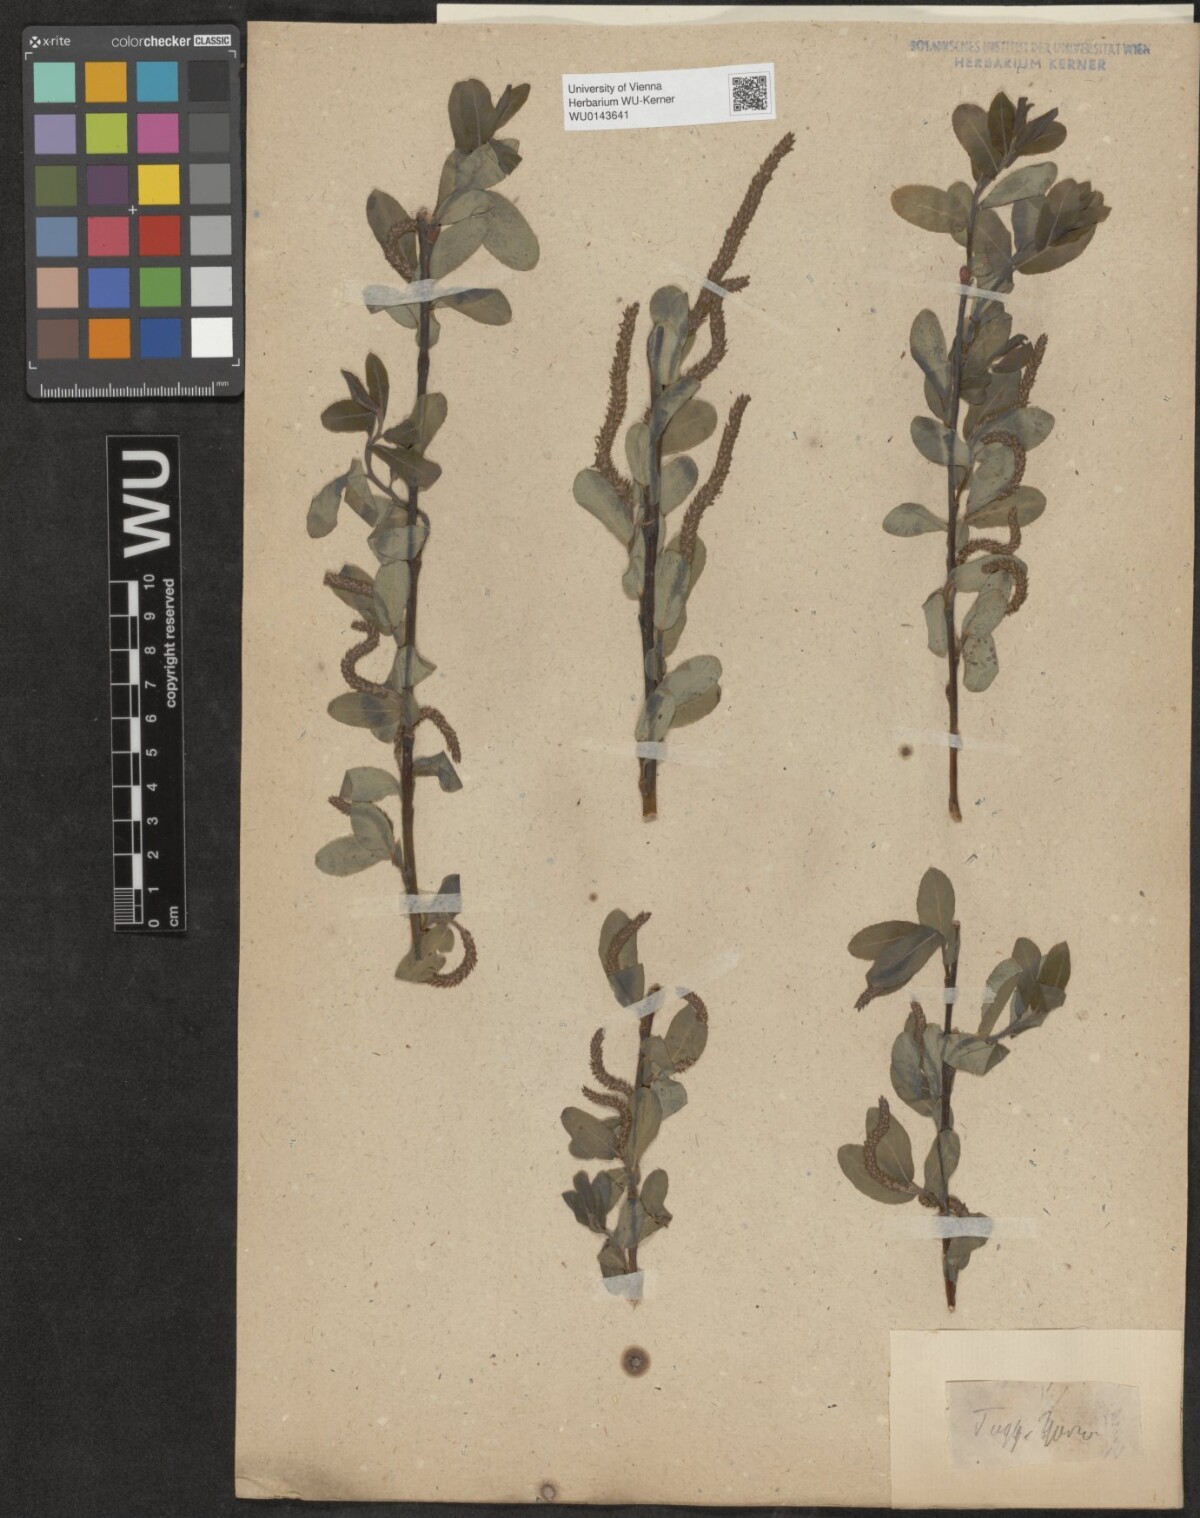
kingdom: Plantae
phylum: Tracheophyta
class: Magnoliopsida
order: Malpighiales
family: Salicaceae
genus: Salix
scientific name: Salix
